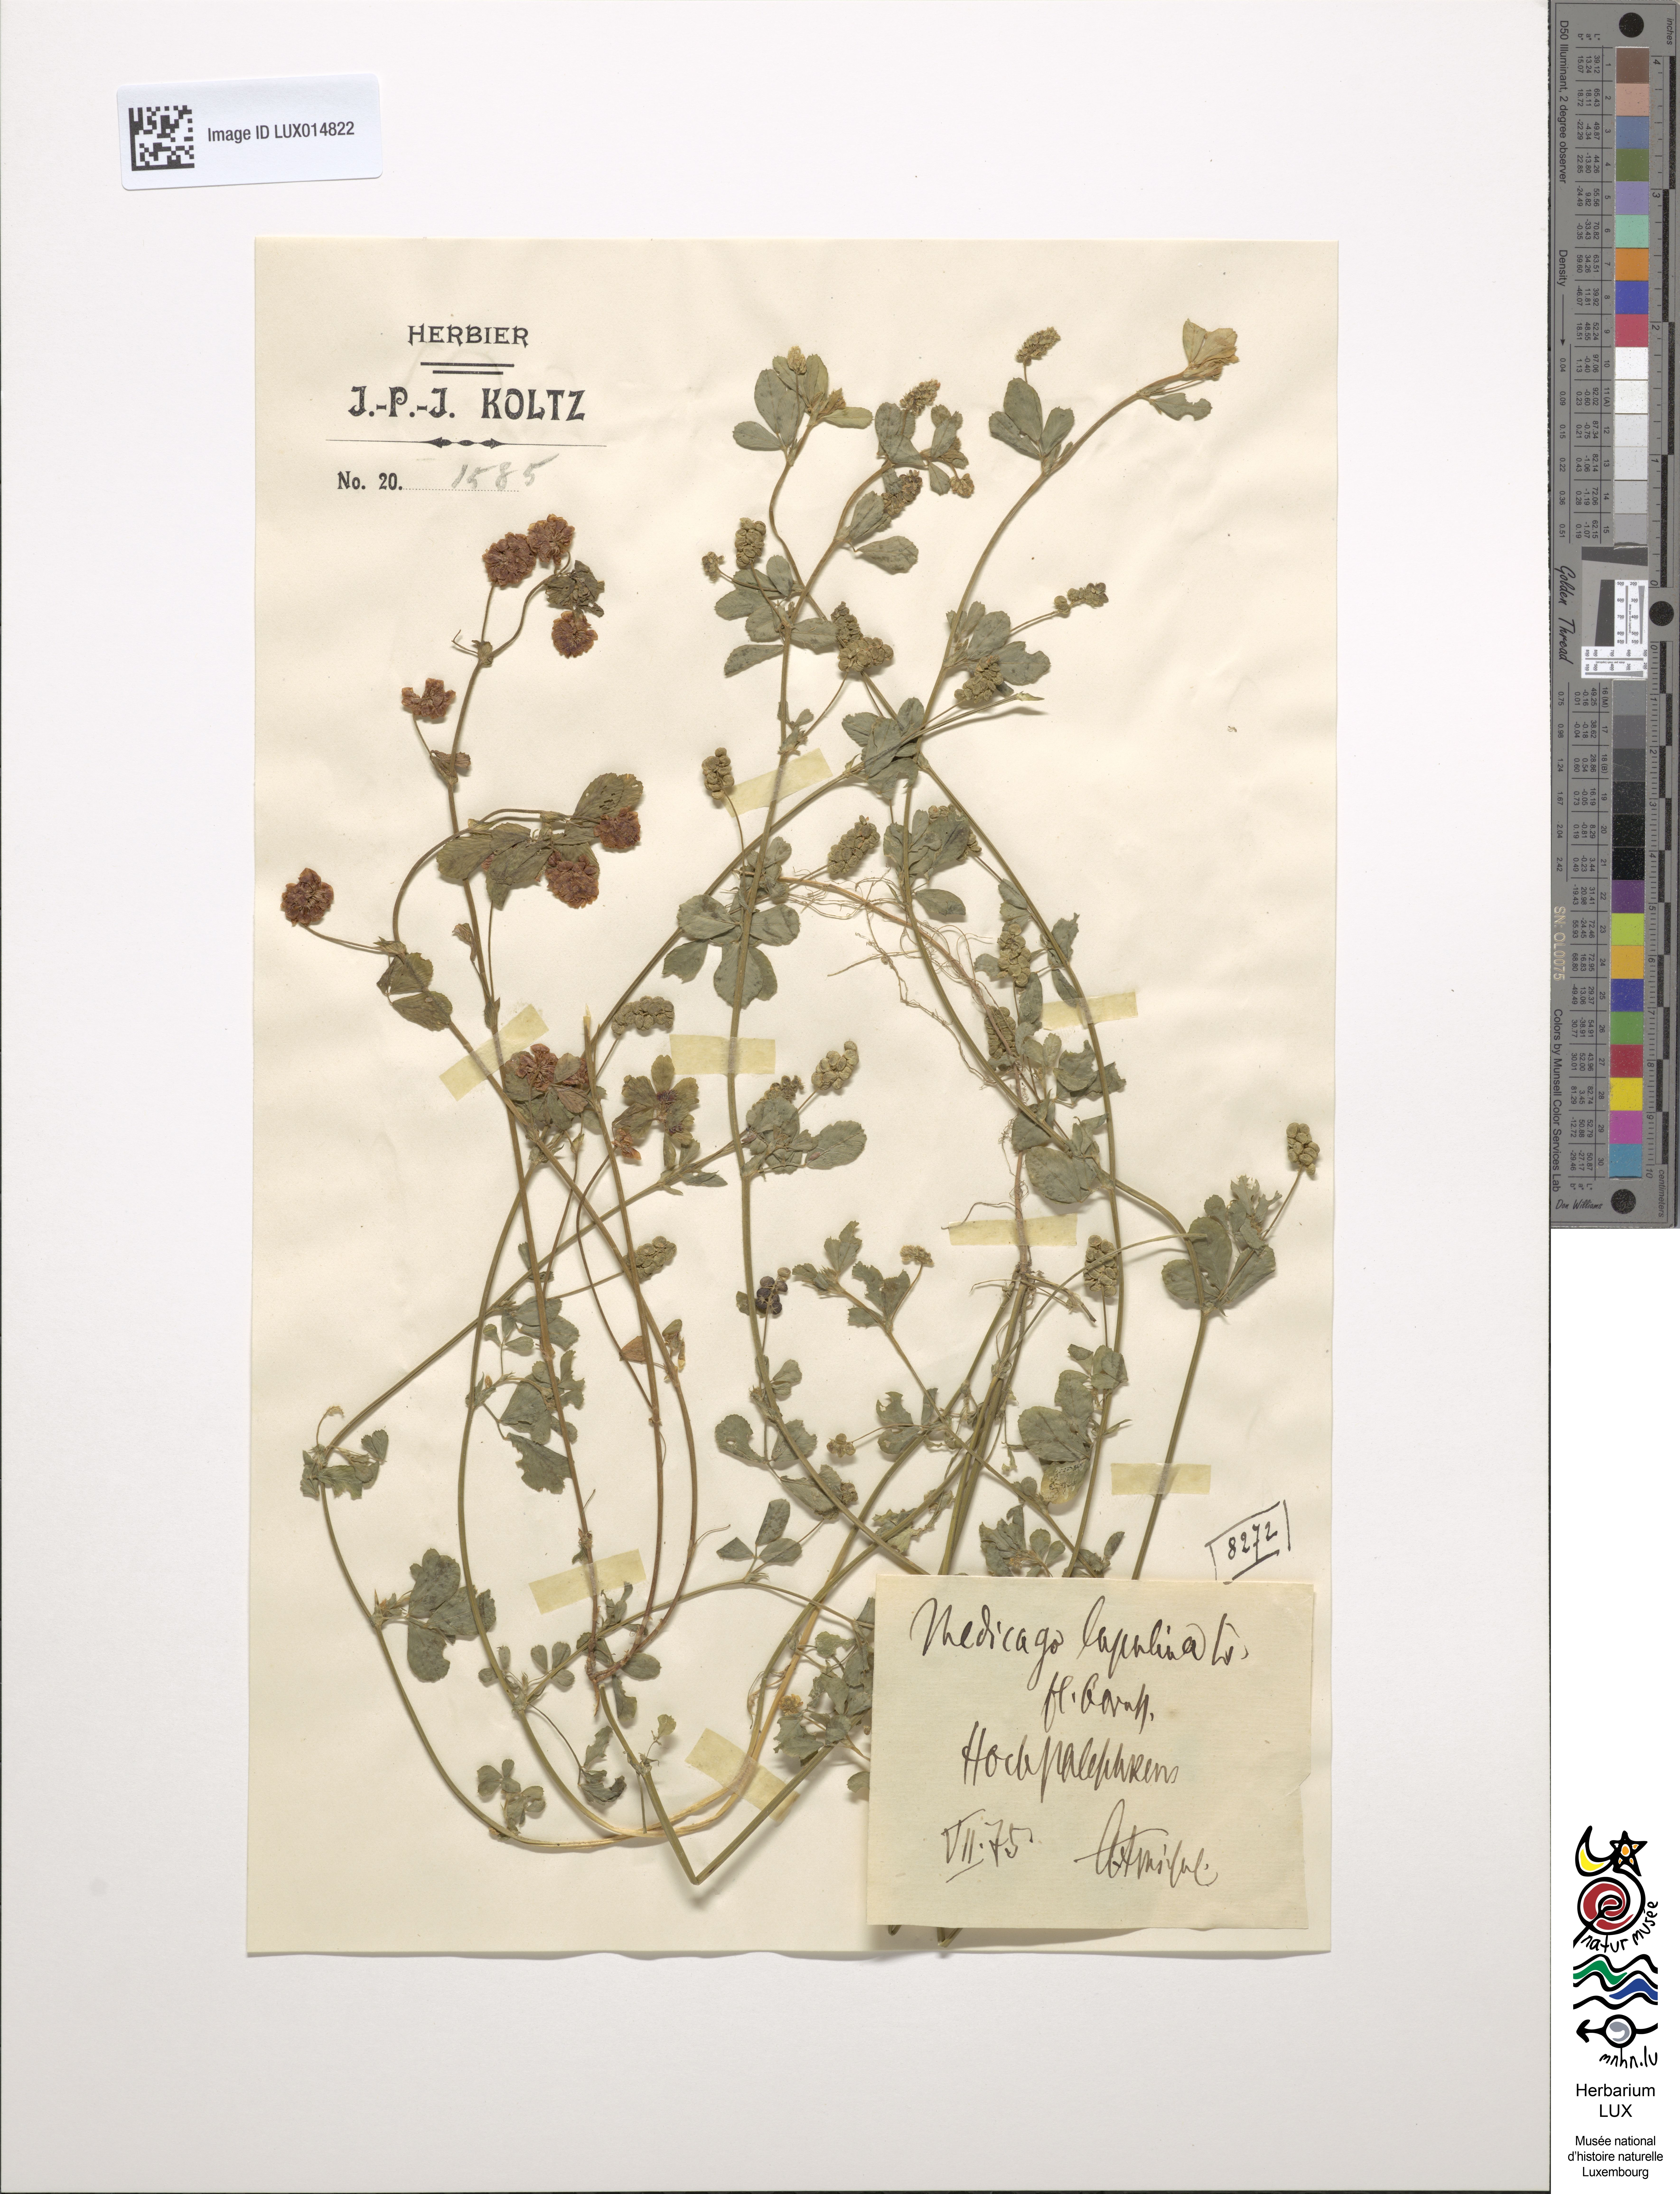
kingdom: Plantae
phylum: Tracheophyta
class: Magnoliopsida
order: Fabales
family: Fabaceae
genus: Medicago
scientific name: Medicago lupulina
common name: Black medick
